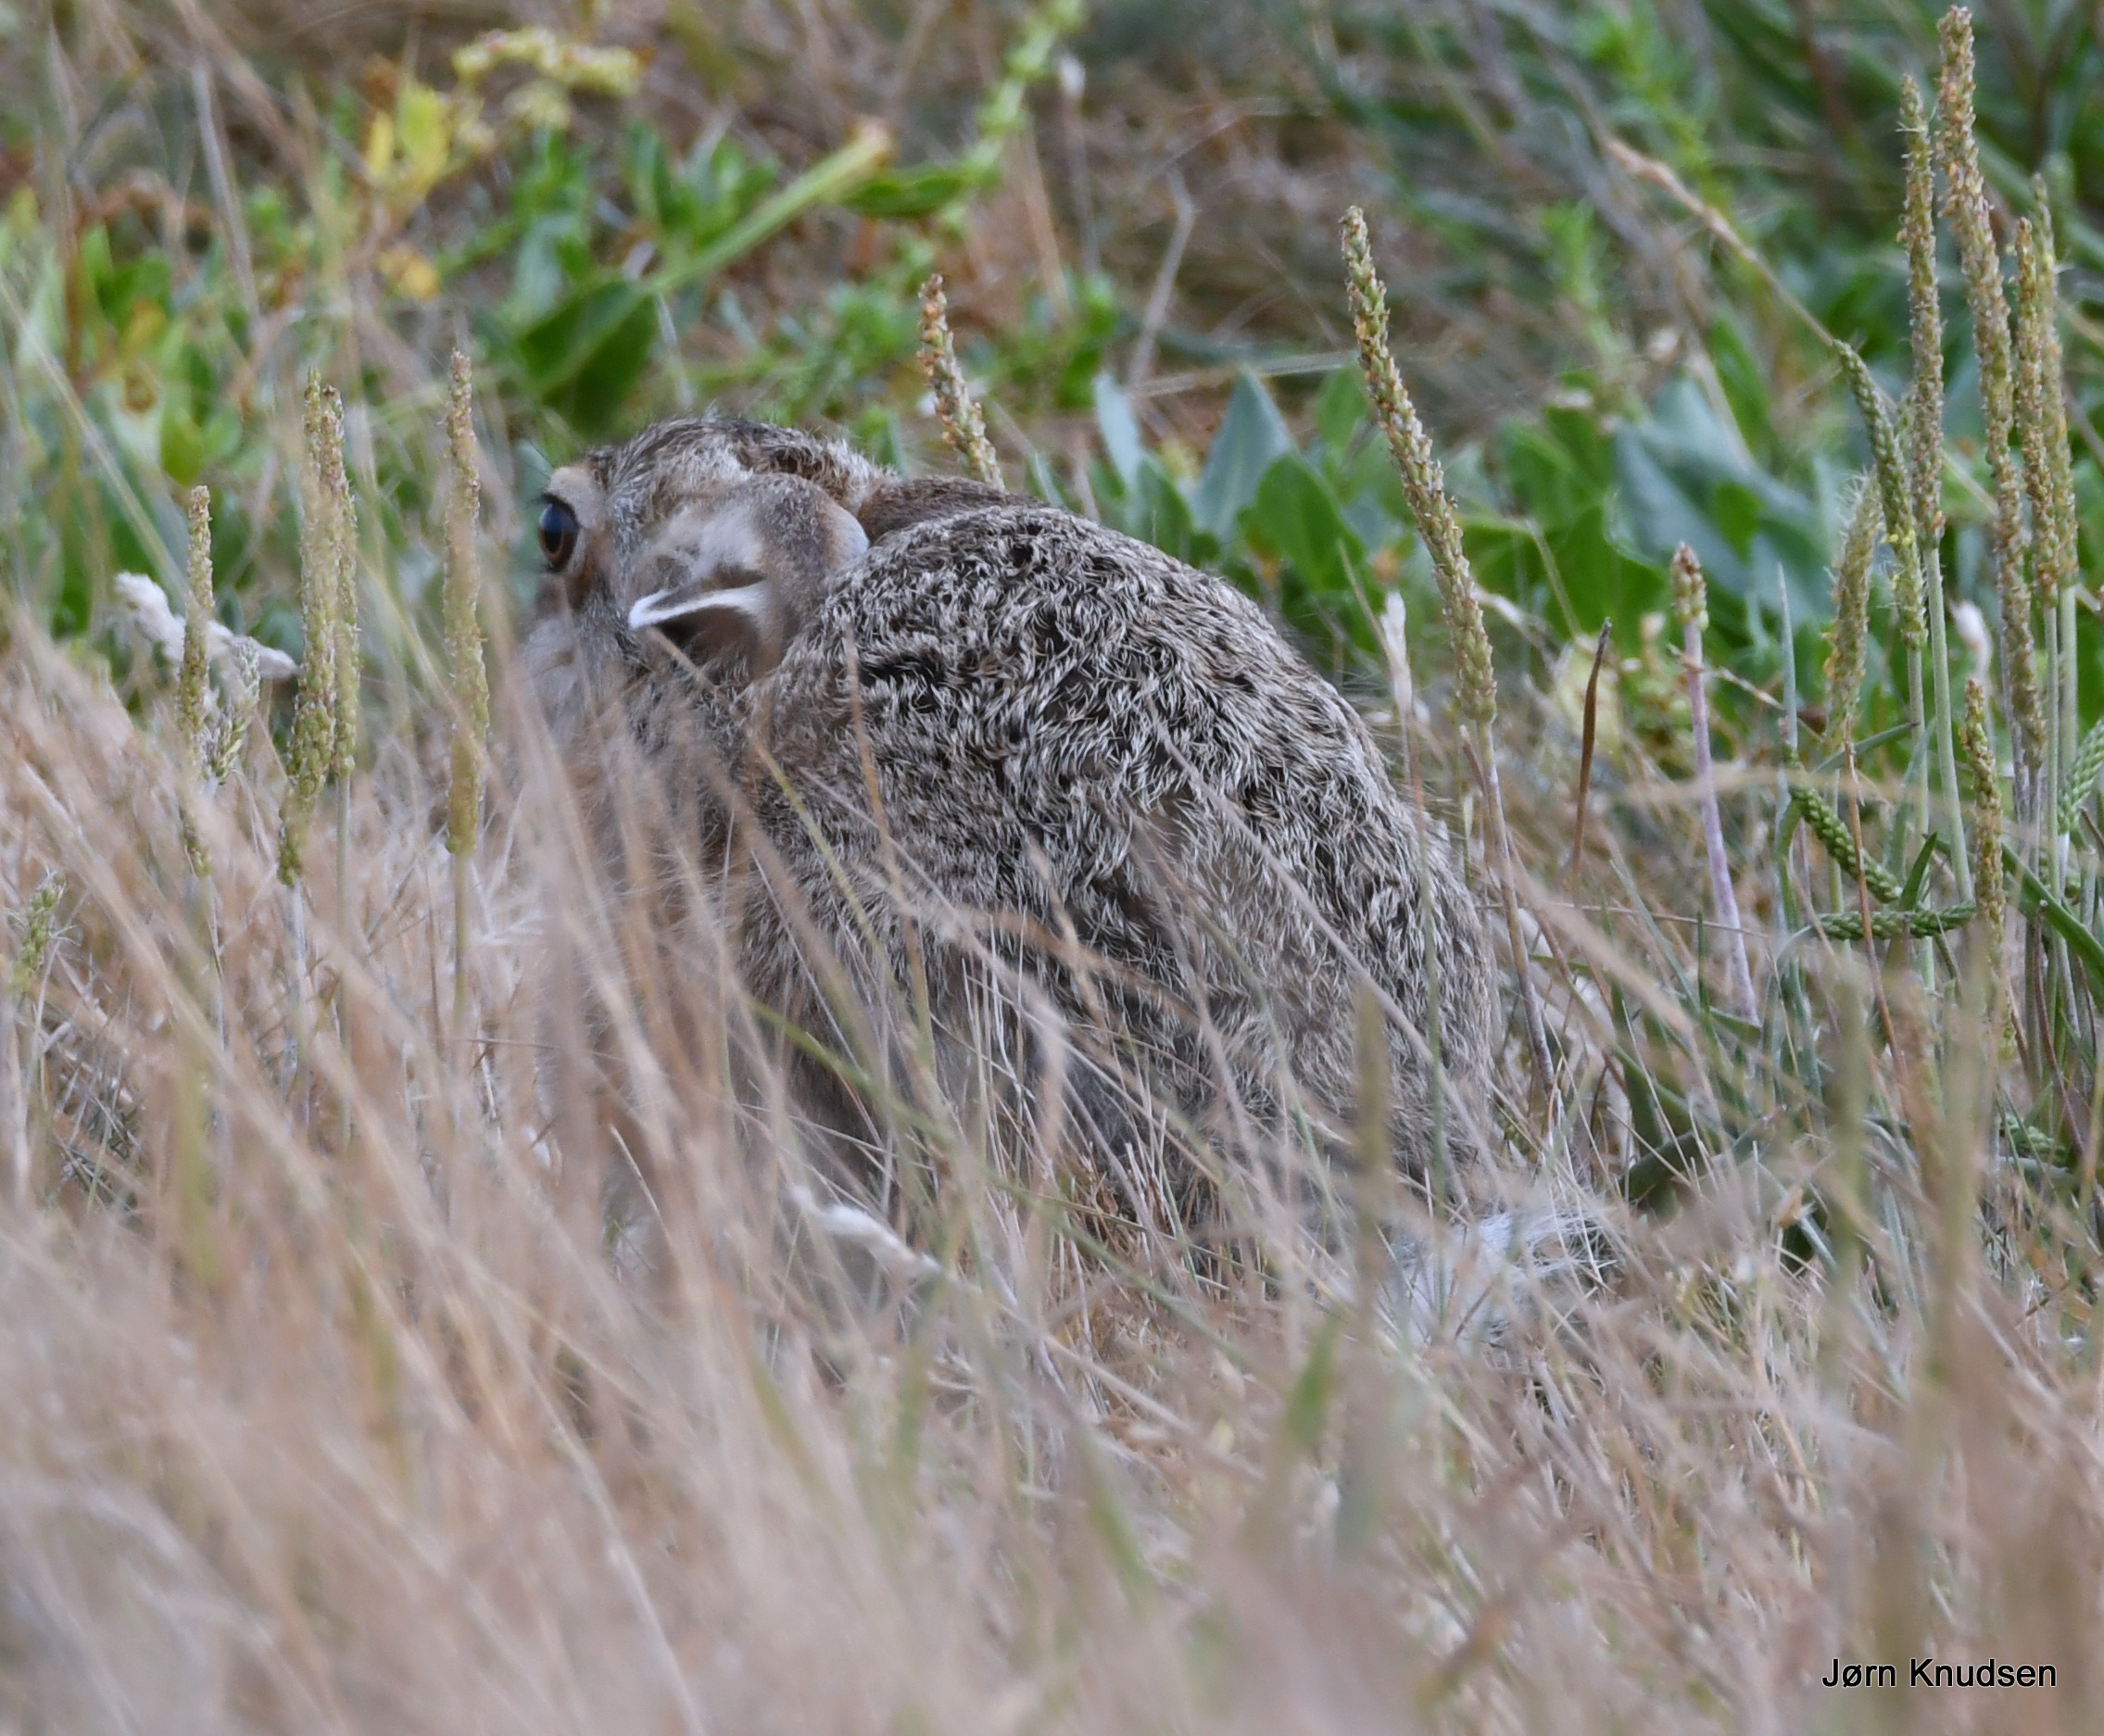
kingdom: Animalia
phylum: Chordata
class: Mammalia
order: Lagomorpha
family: Leporidae
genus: Lepus
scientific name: Lepus europaeus
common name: Hare
